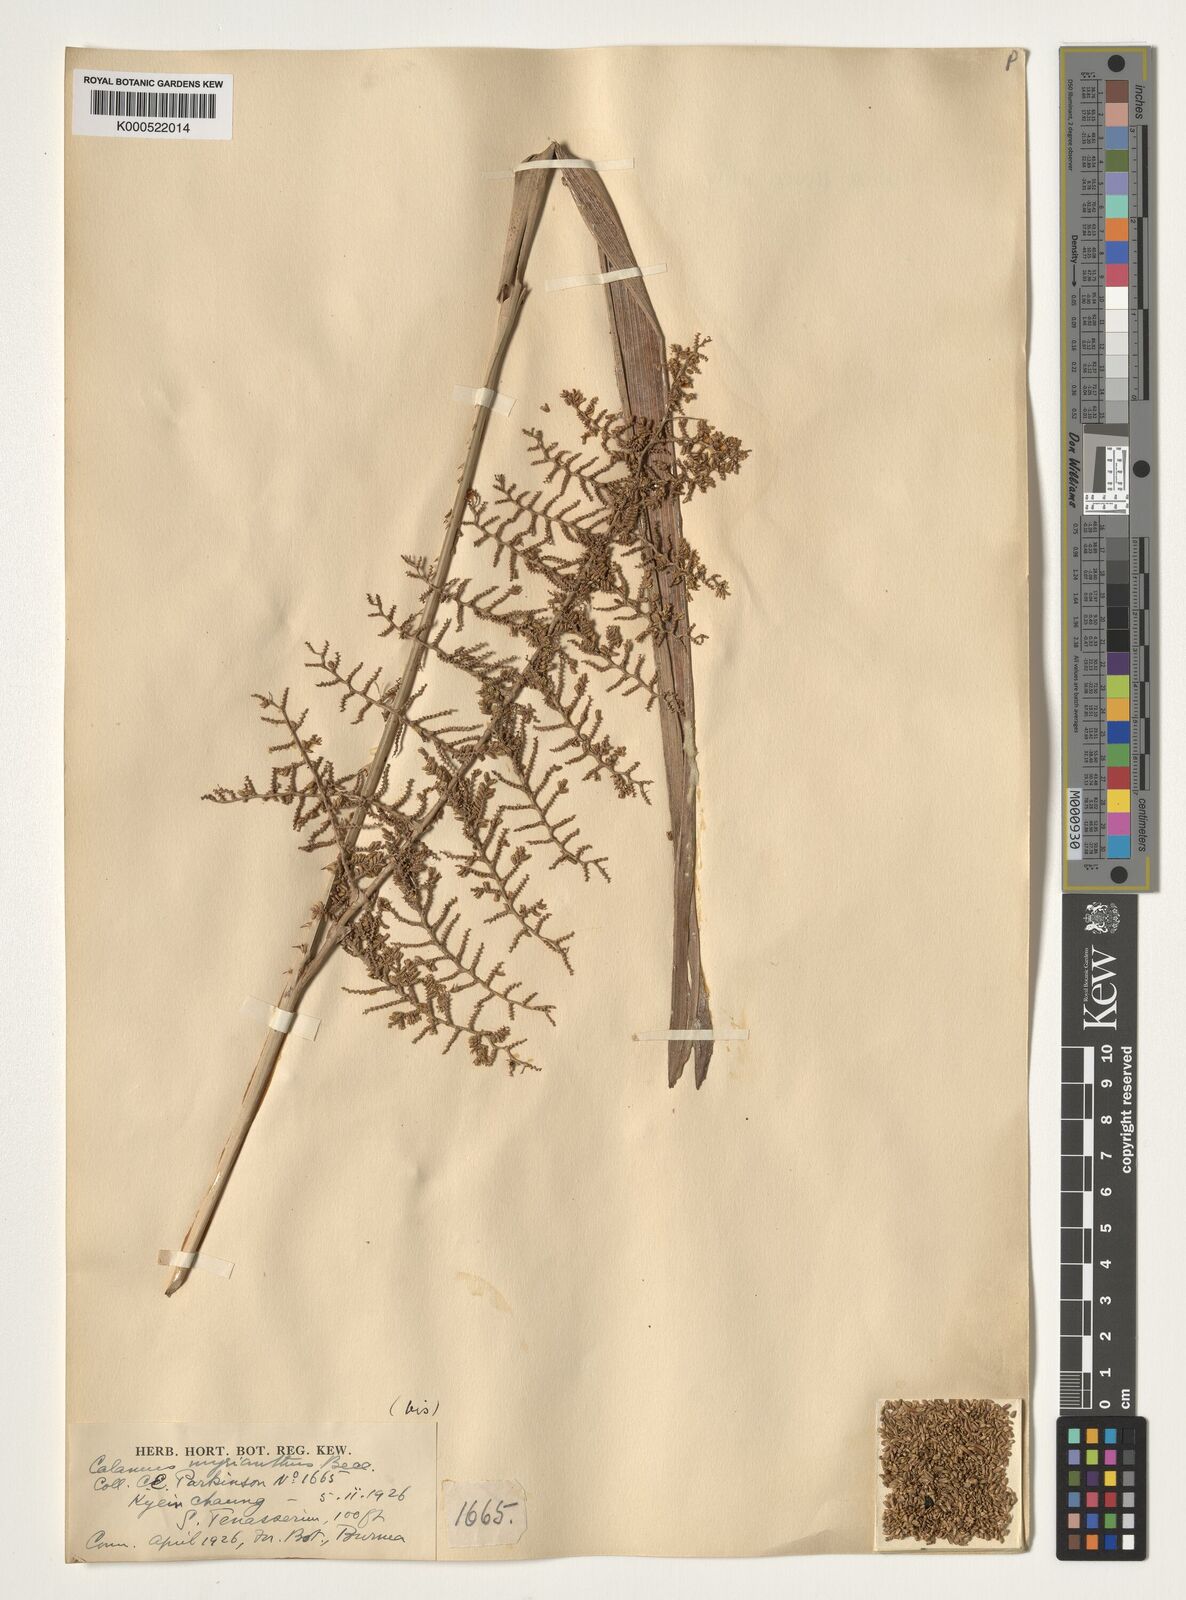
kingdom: Plantae
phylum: Tracheophyta
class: Liliopsida
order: Arecales
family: Arecaceae
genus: Calamus
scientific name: Calamus myrianthus
